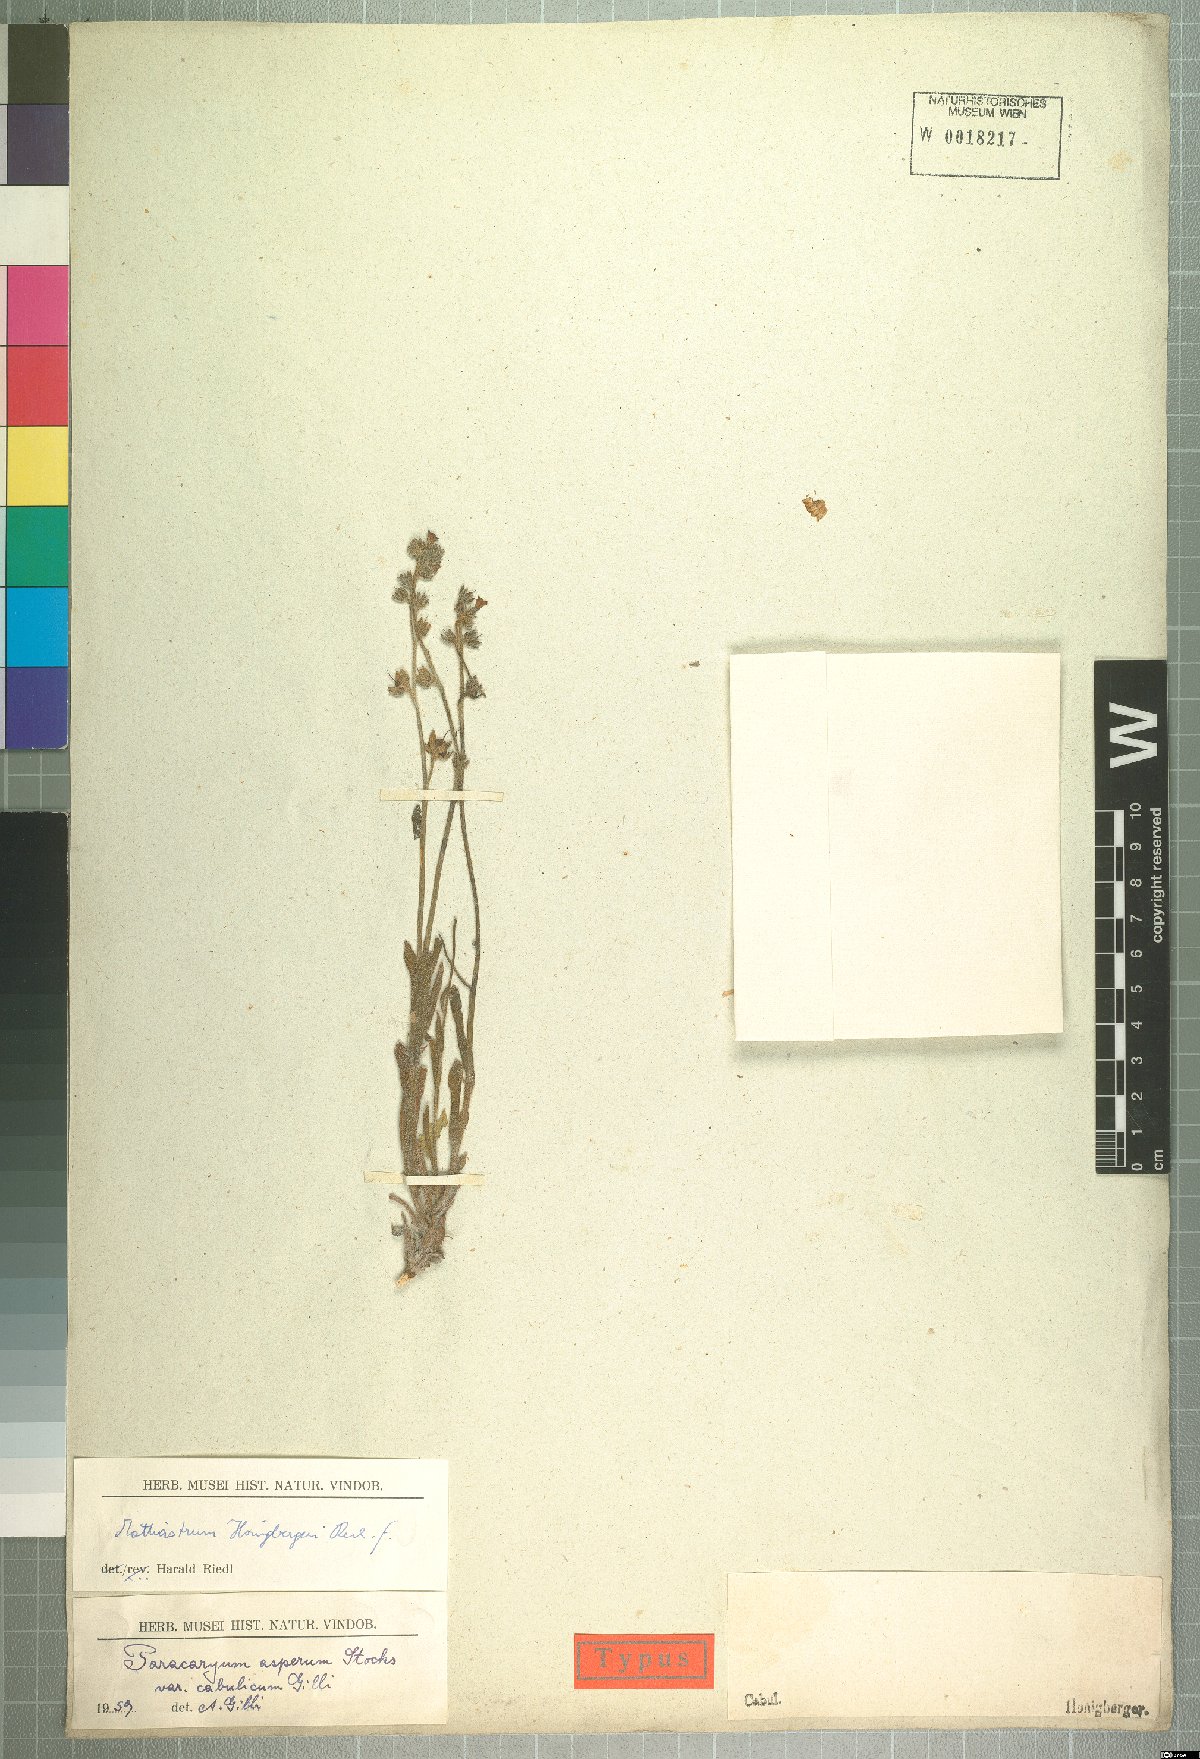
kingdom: Plantae
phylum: Tracheophyta
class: Magnoliopsida
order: Boraginales
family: Boraginaceae
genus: Paracaryum
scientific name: Paracaryum asperum
